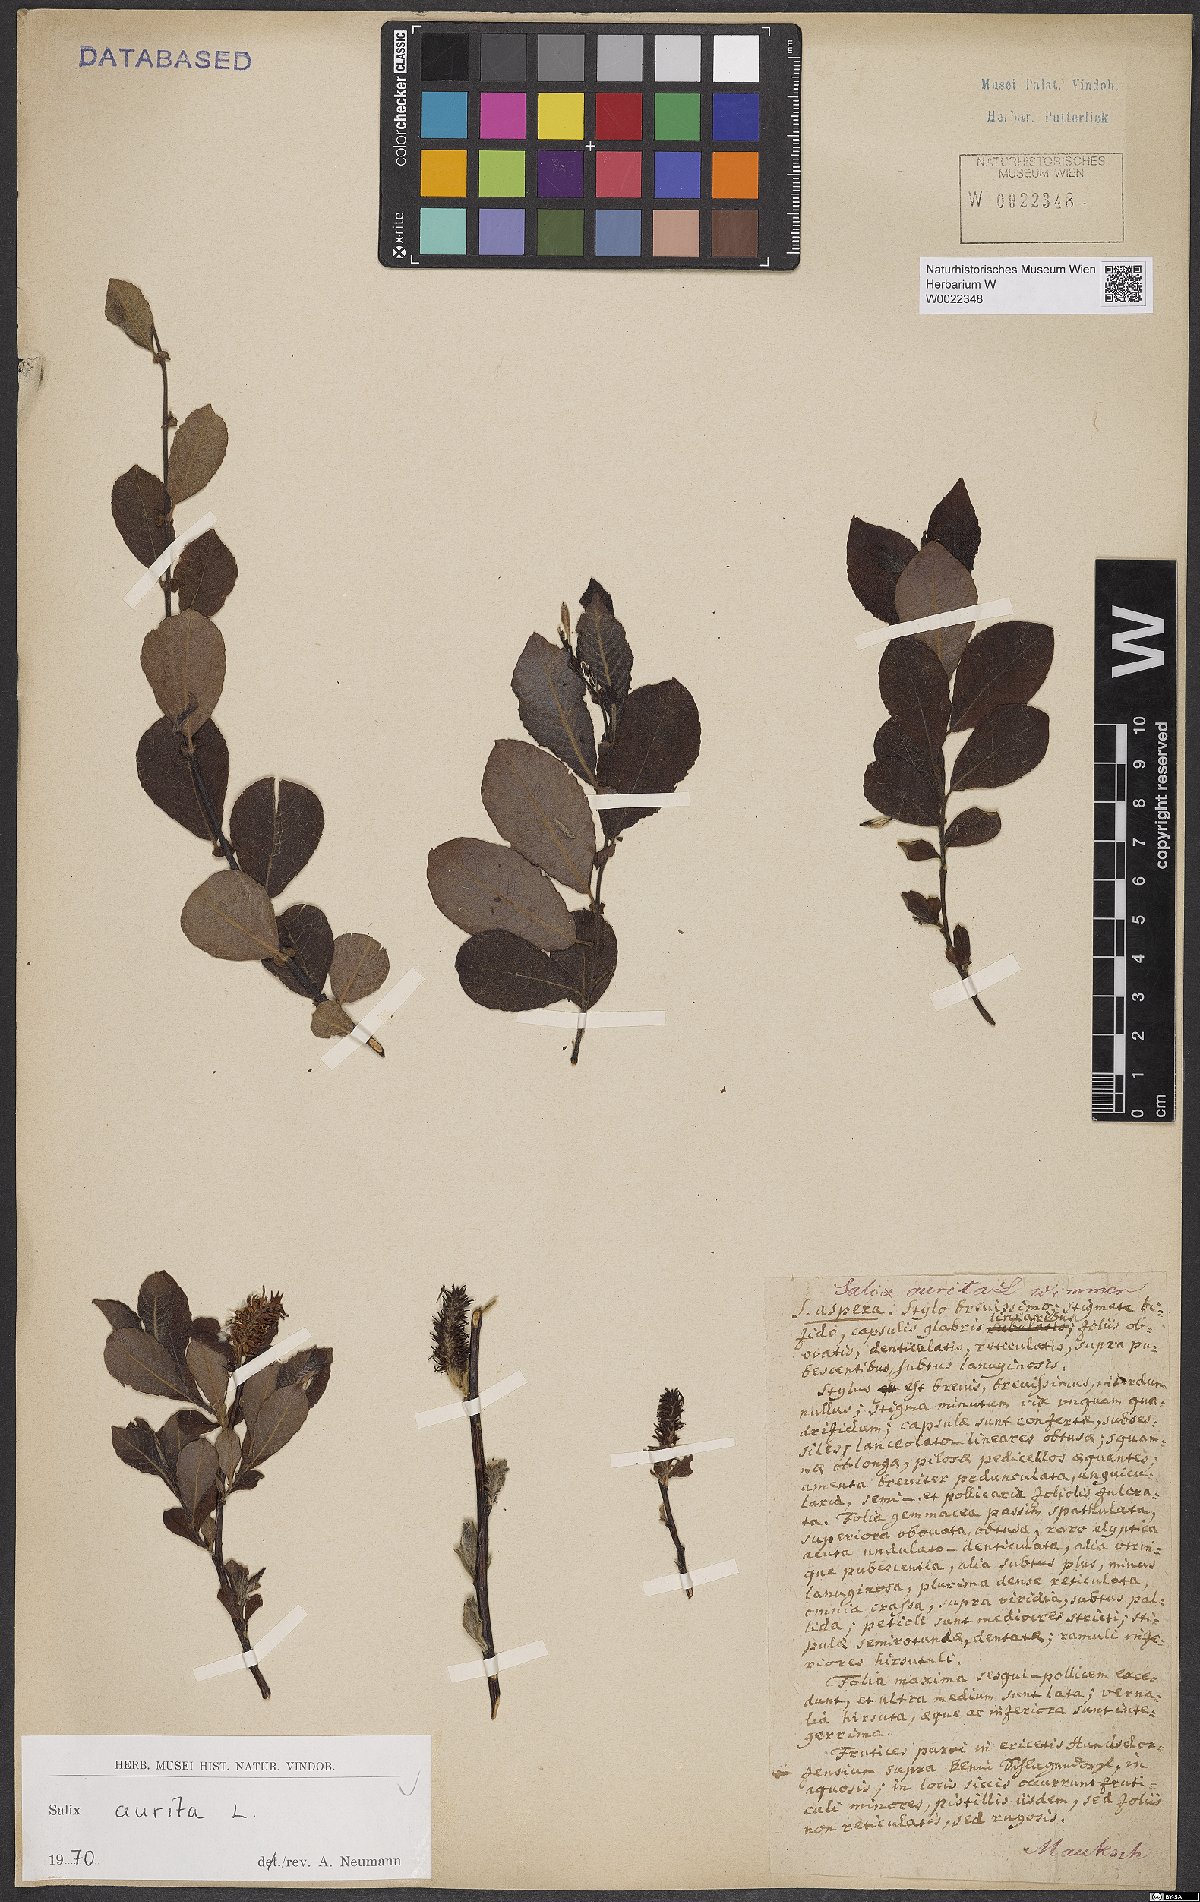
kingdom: Plantae
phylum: Tracheophyta
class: Magnoliopsida
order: Malpighiales
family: Salicaceae
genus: Salix
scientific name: Salix aurita
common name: Eared willow
